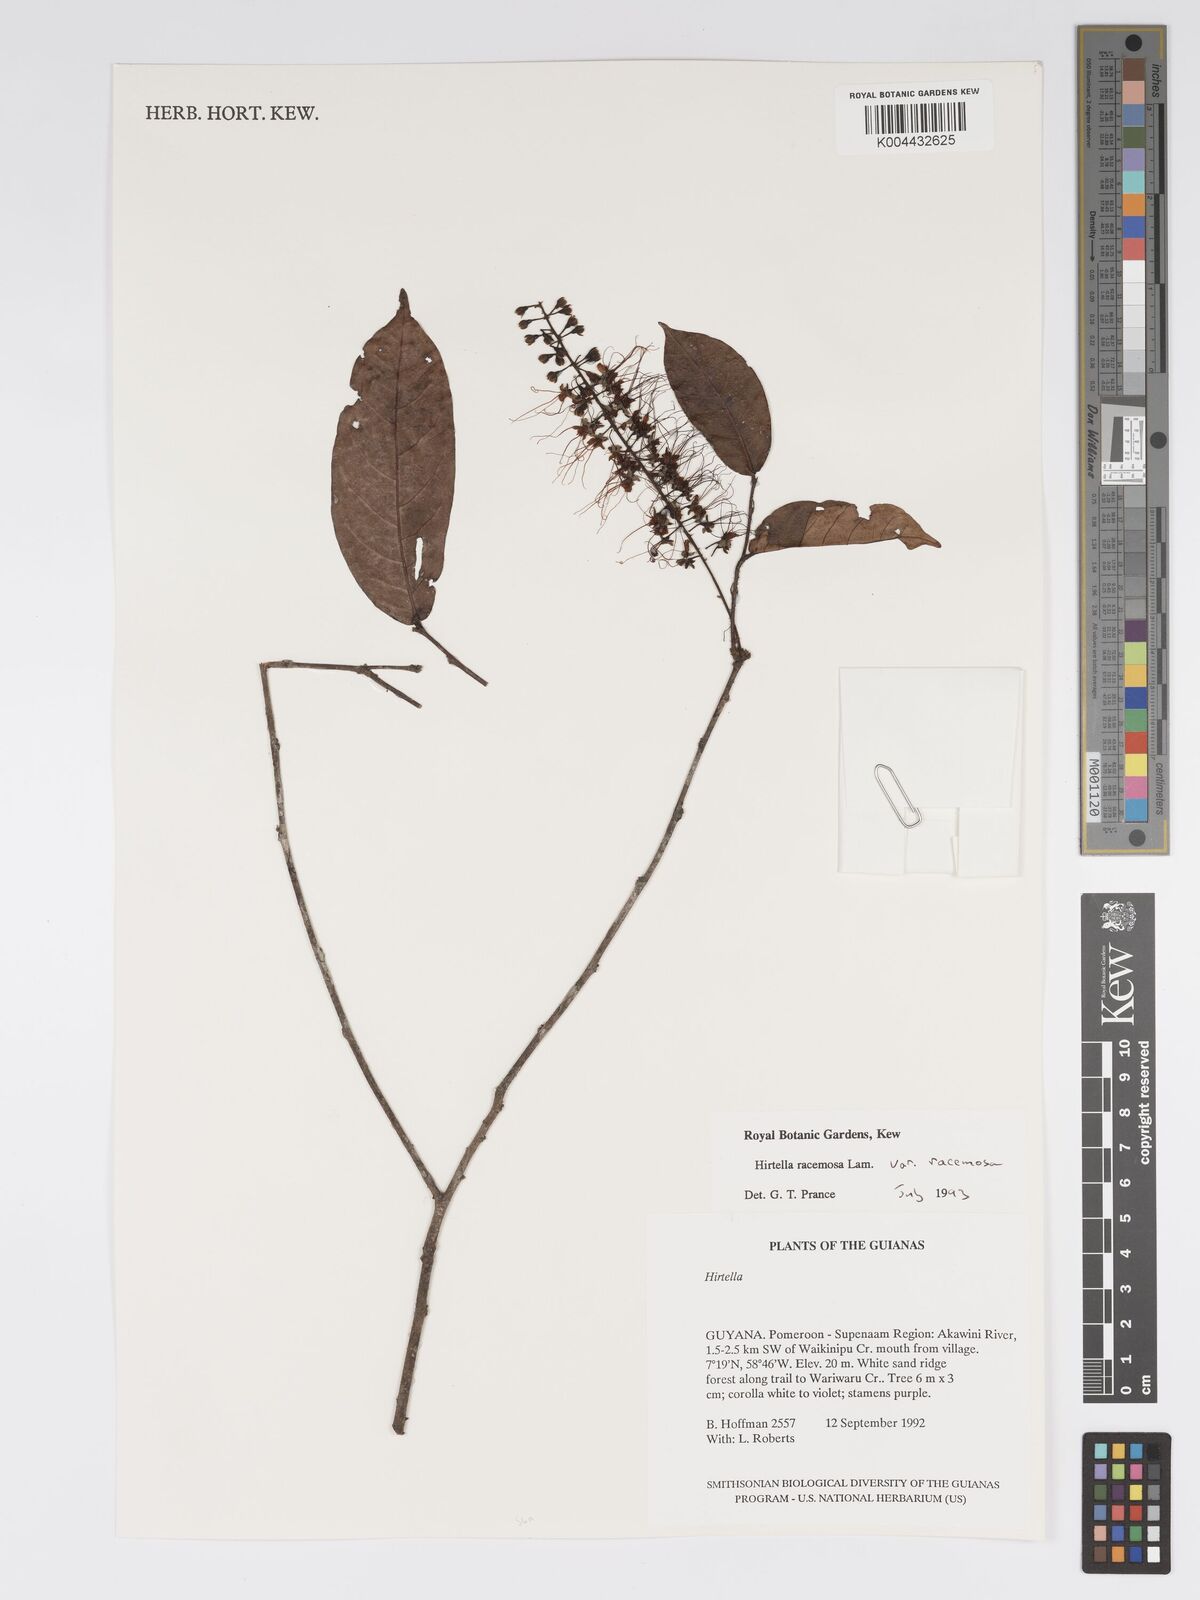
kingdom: Plantae
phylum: Tracheophyta
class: Magnoliopsida
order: Malpighiales
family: Chrysobalanaceae
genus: Hirtella
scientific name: Hirtella racemosa
